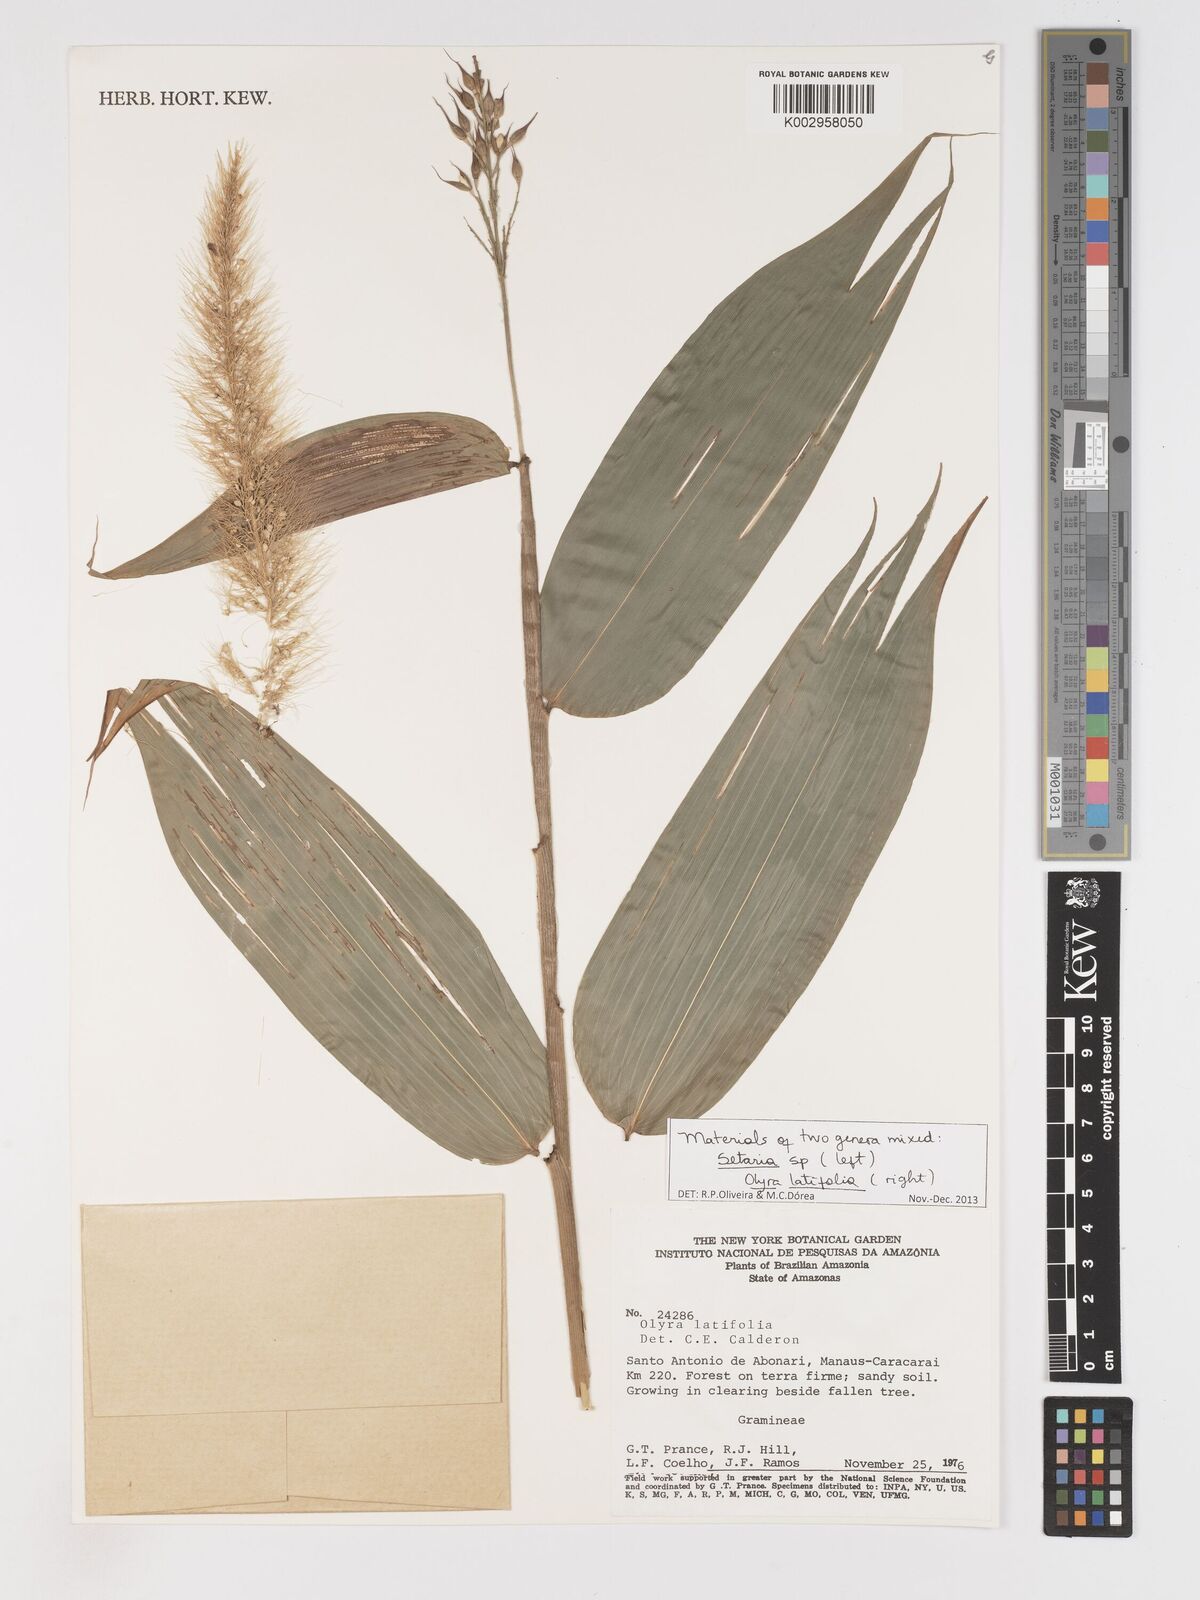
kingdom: Plantae
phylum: Tracheophyta
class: Liliopsida
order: Poales
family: Poaceae
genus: Olyra
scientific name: Olyra latifolia
